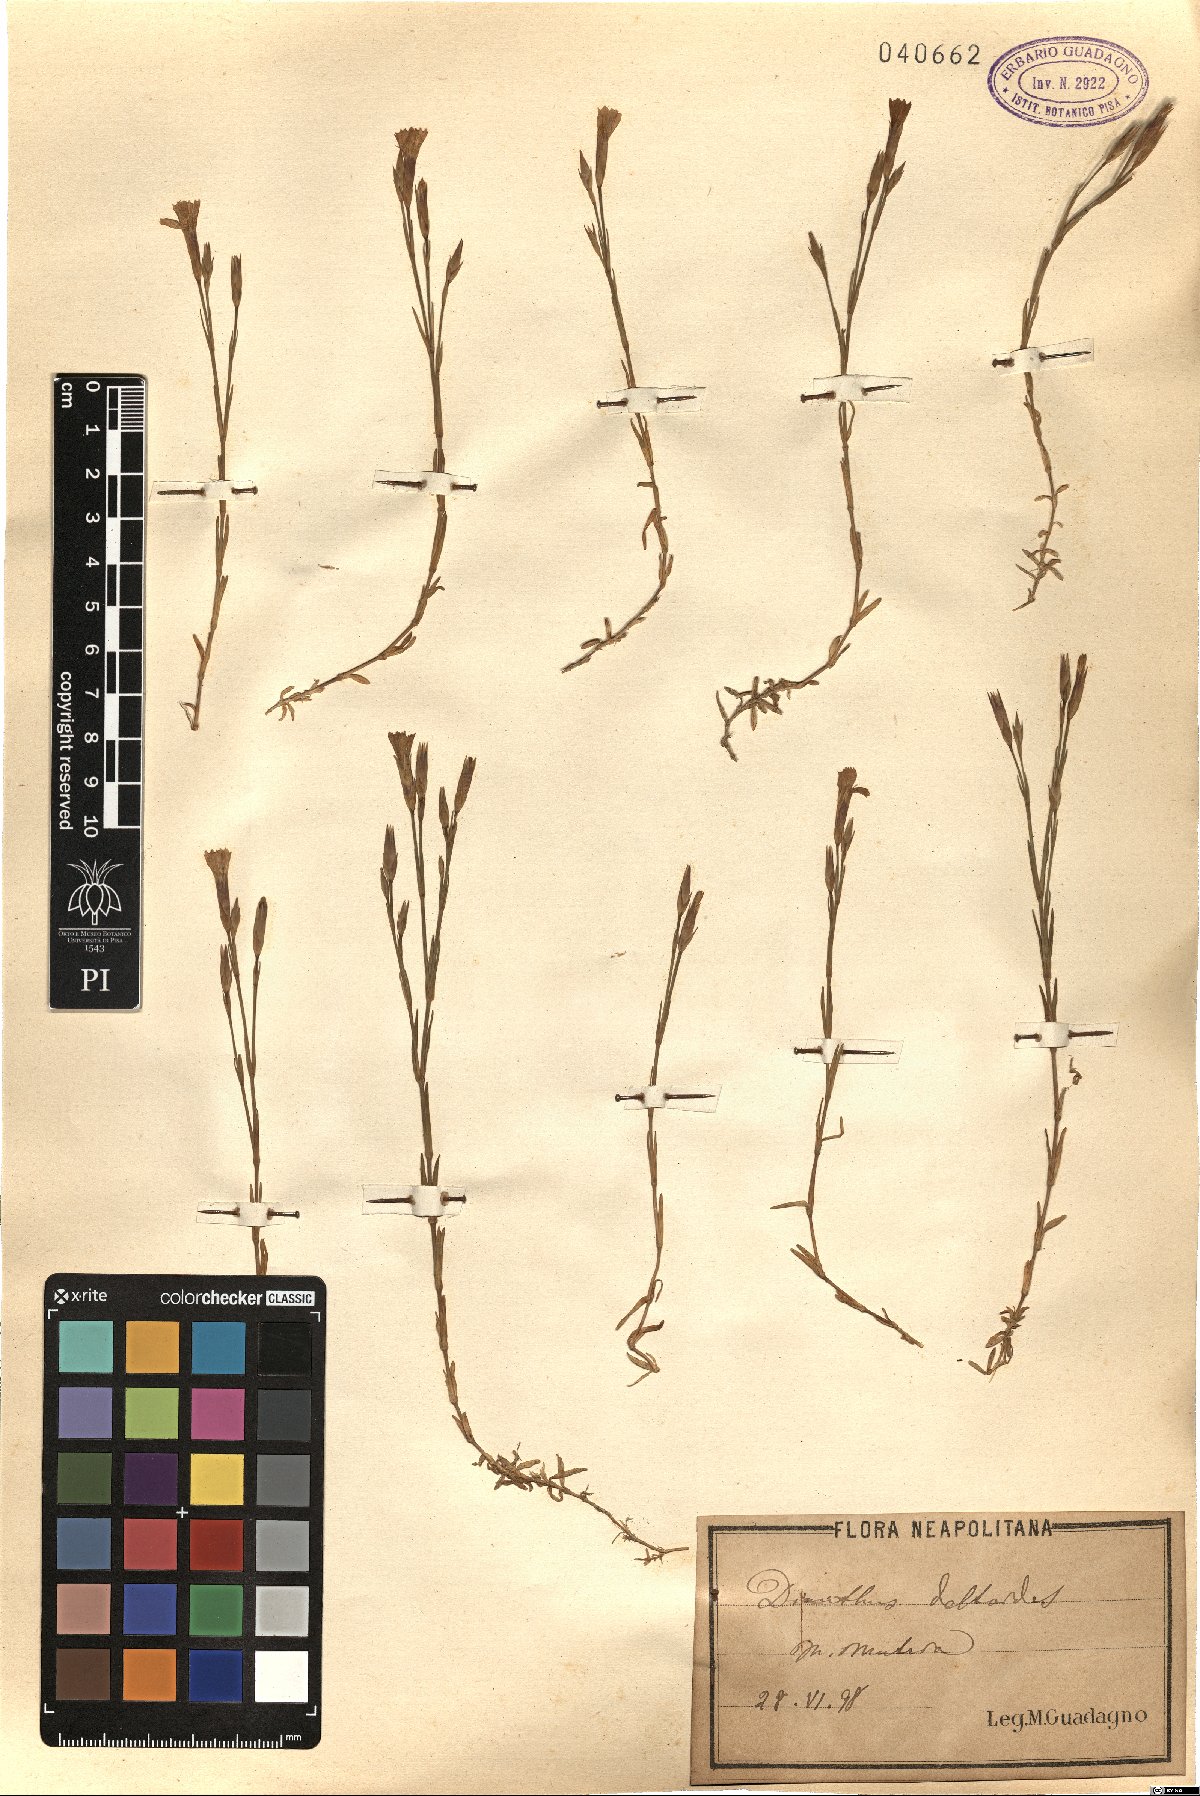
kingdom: Plantae
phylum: Tracheophyta
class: Magnoliopsida
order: Caryophyllales
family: Caryophyllaceae
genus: Dianthus
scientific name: Dianthus deltoides
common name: Maiden pink
